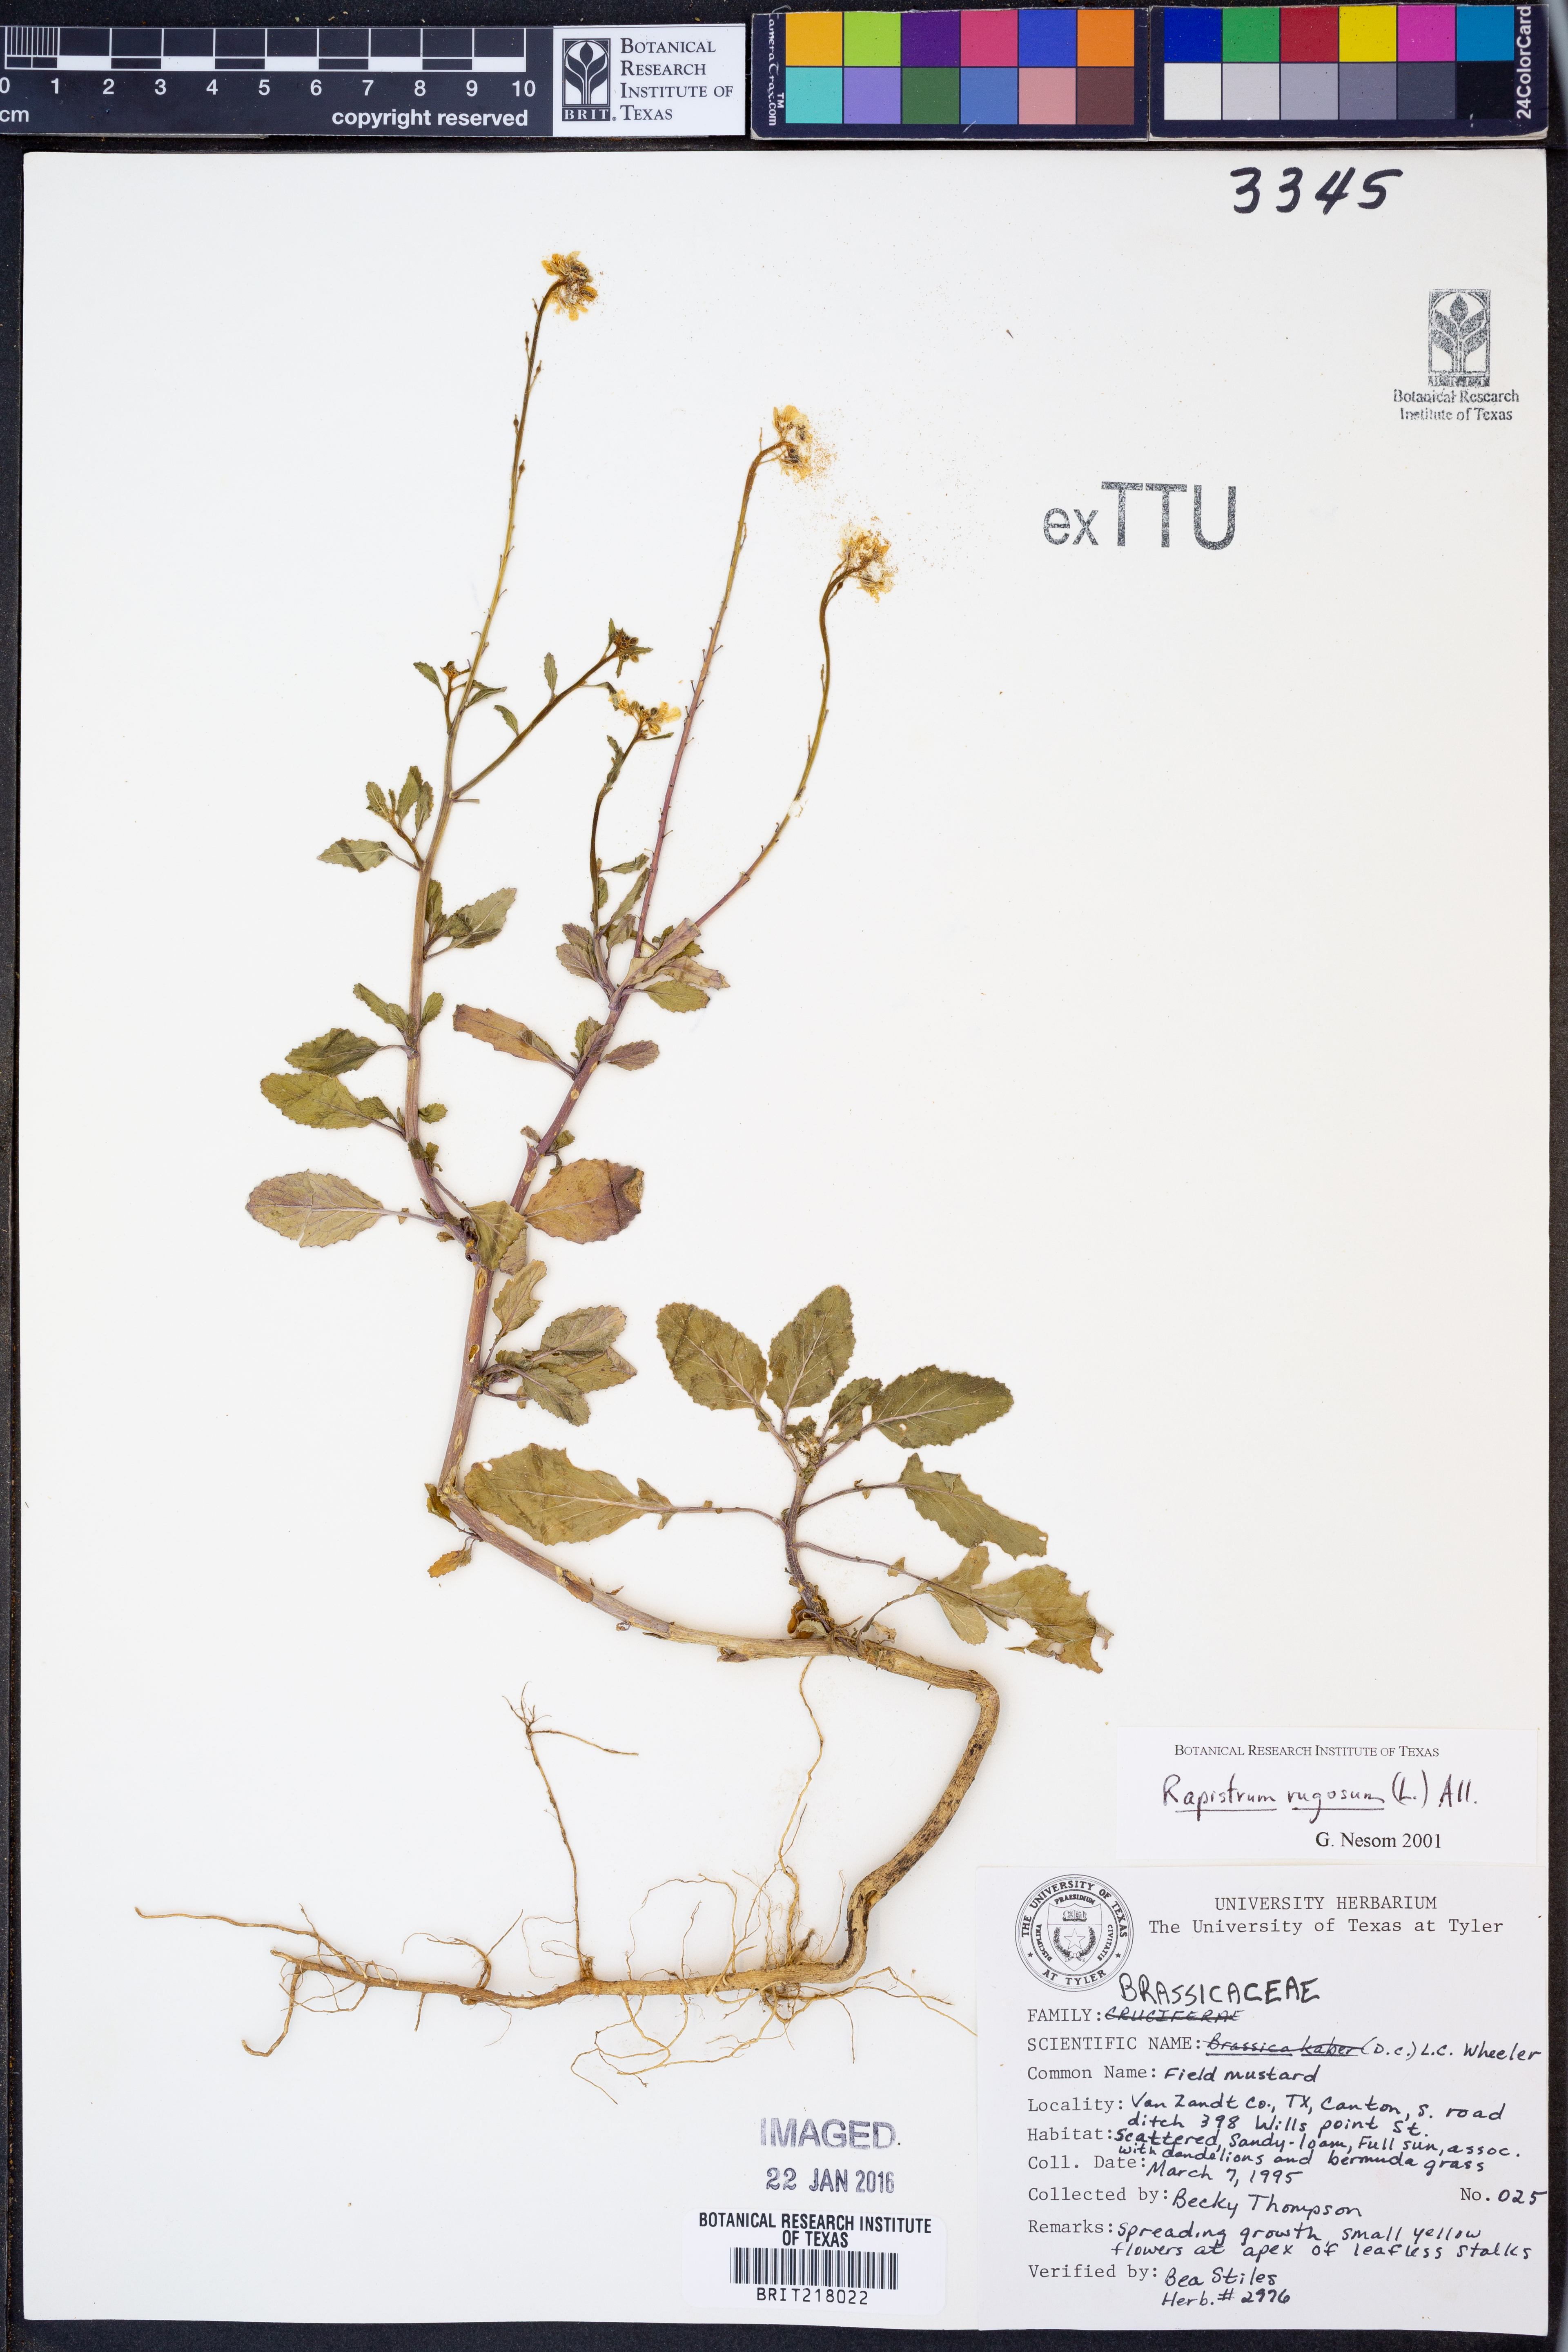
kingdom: Plantae
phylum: Tracheophyta
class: Magnoliopsida
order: Brassicales
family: Brassicaceae
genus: Rapistrum
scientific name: Rapistrum rugosum
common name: Annual bastardcabbage
